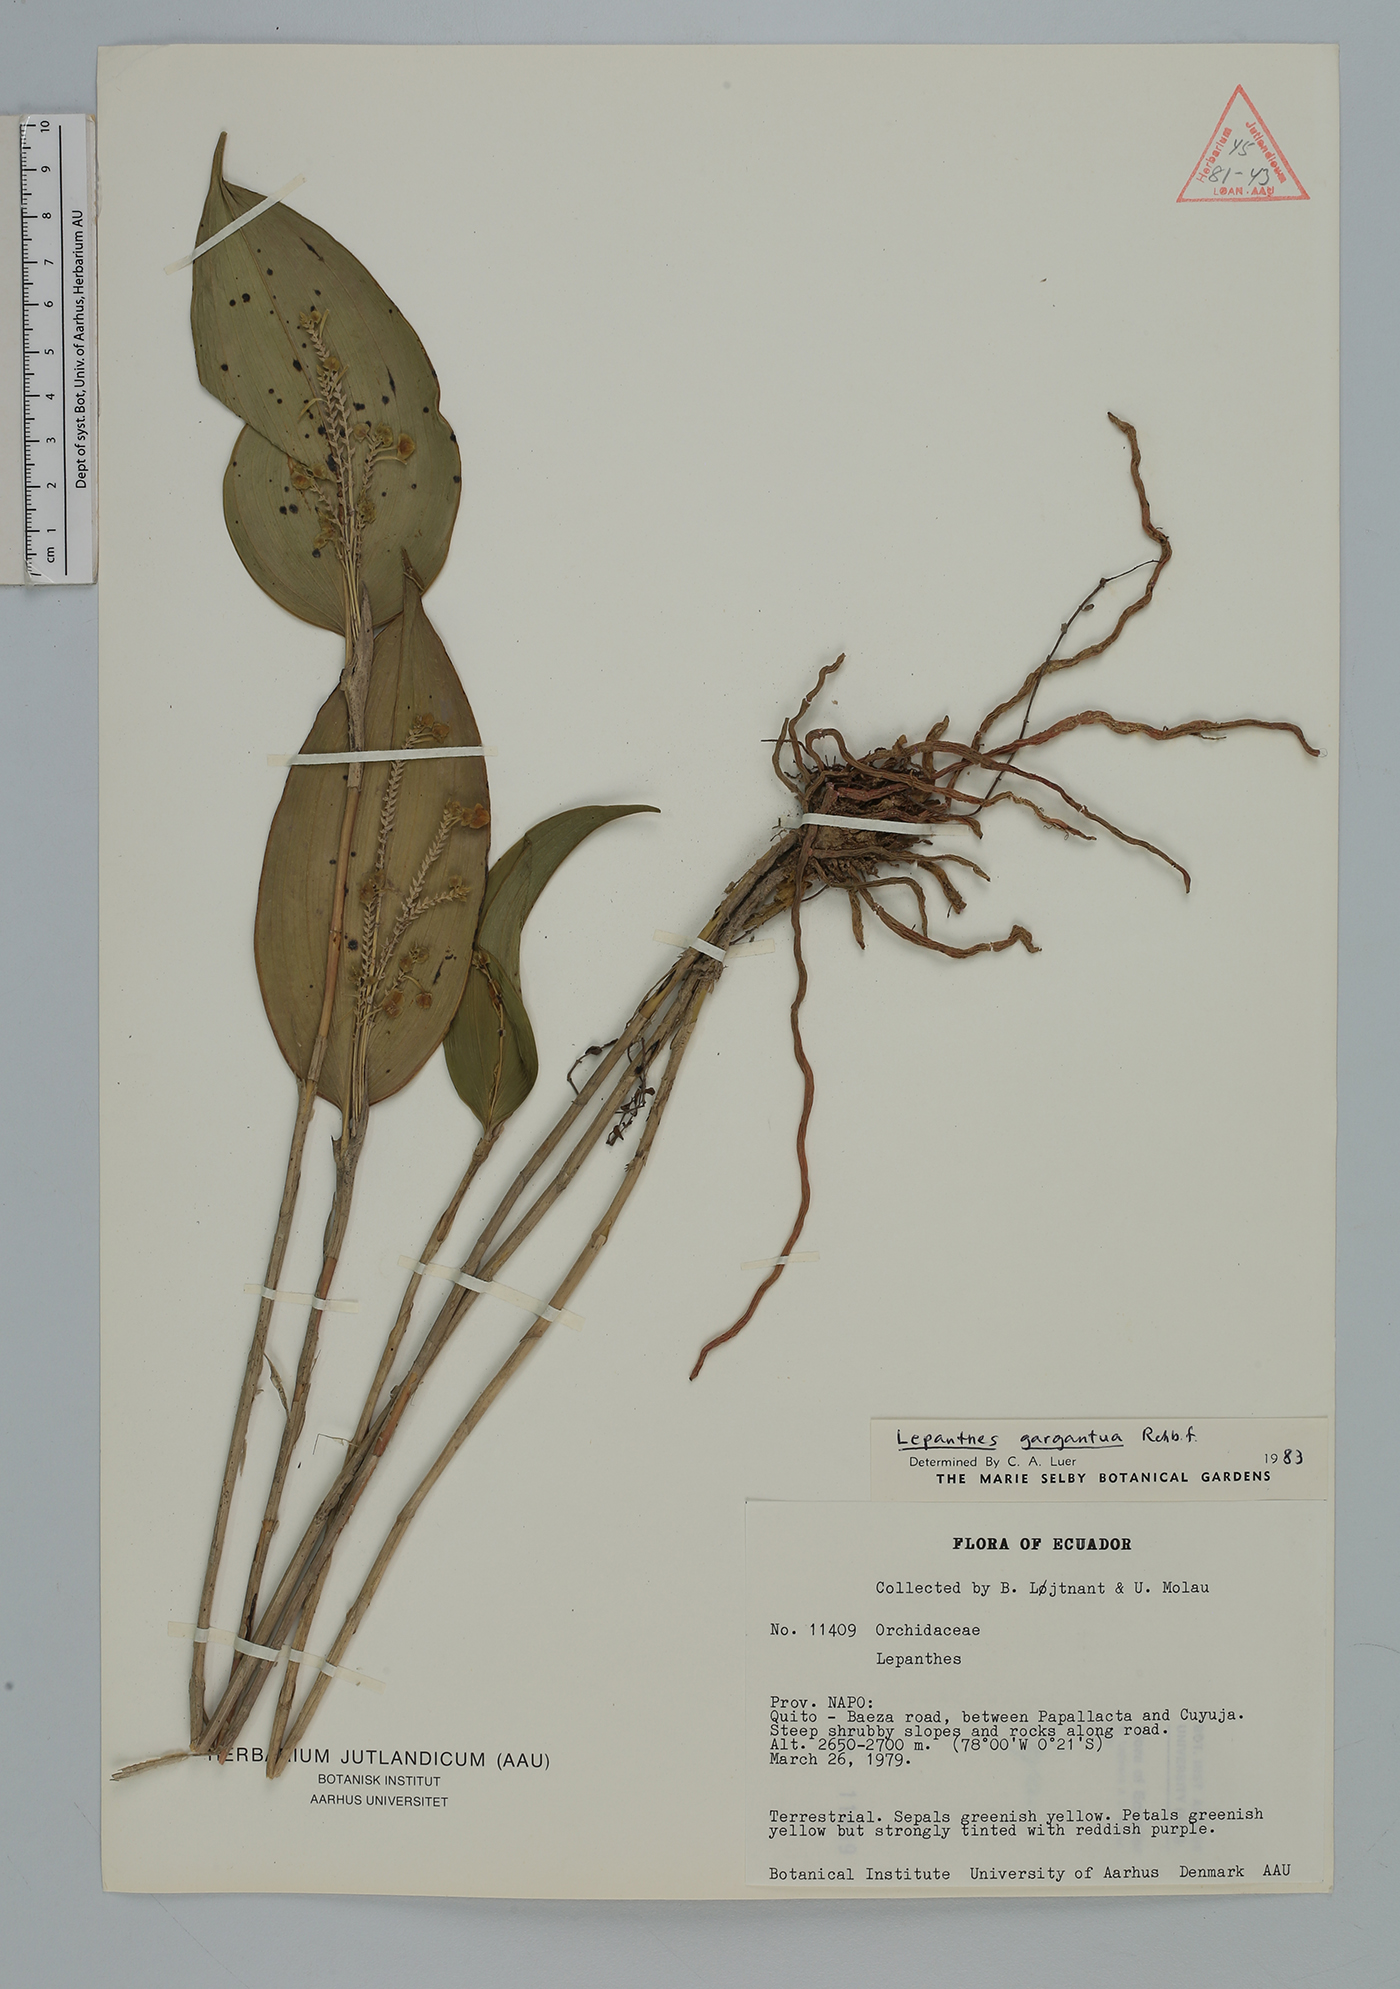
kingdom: Plantae
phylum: Tracheophyta
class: Liliopsida
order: Asparagales
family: Orchidaceae
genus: Lepanthes
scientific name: Lepanthes
